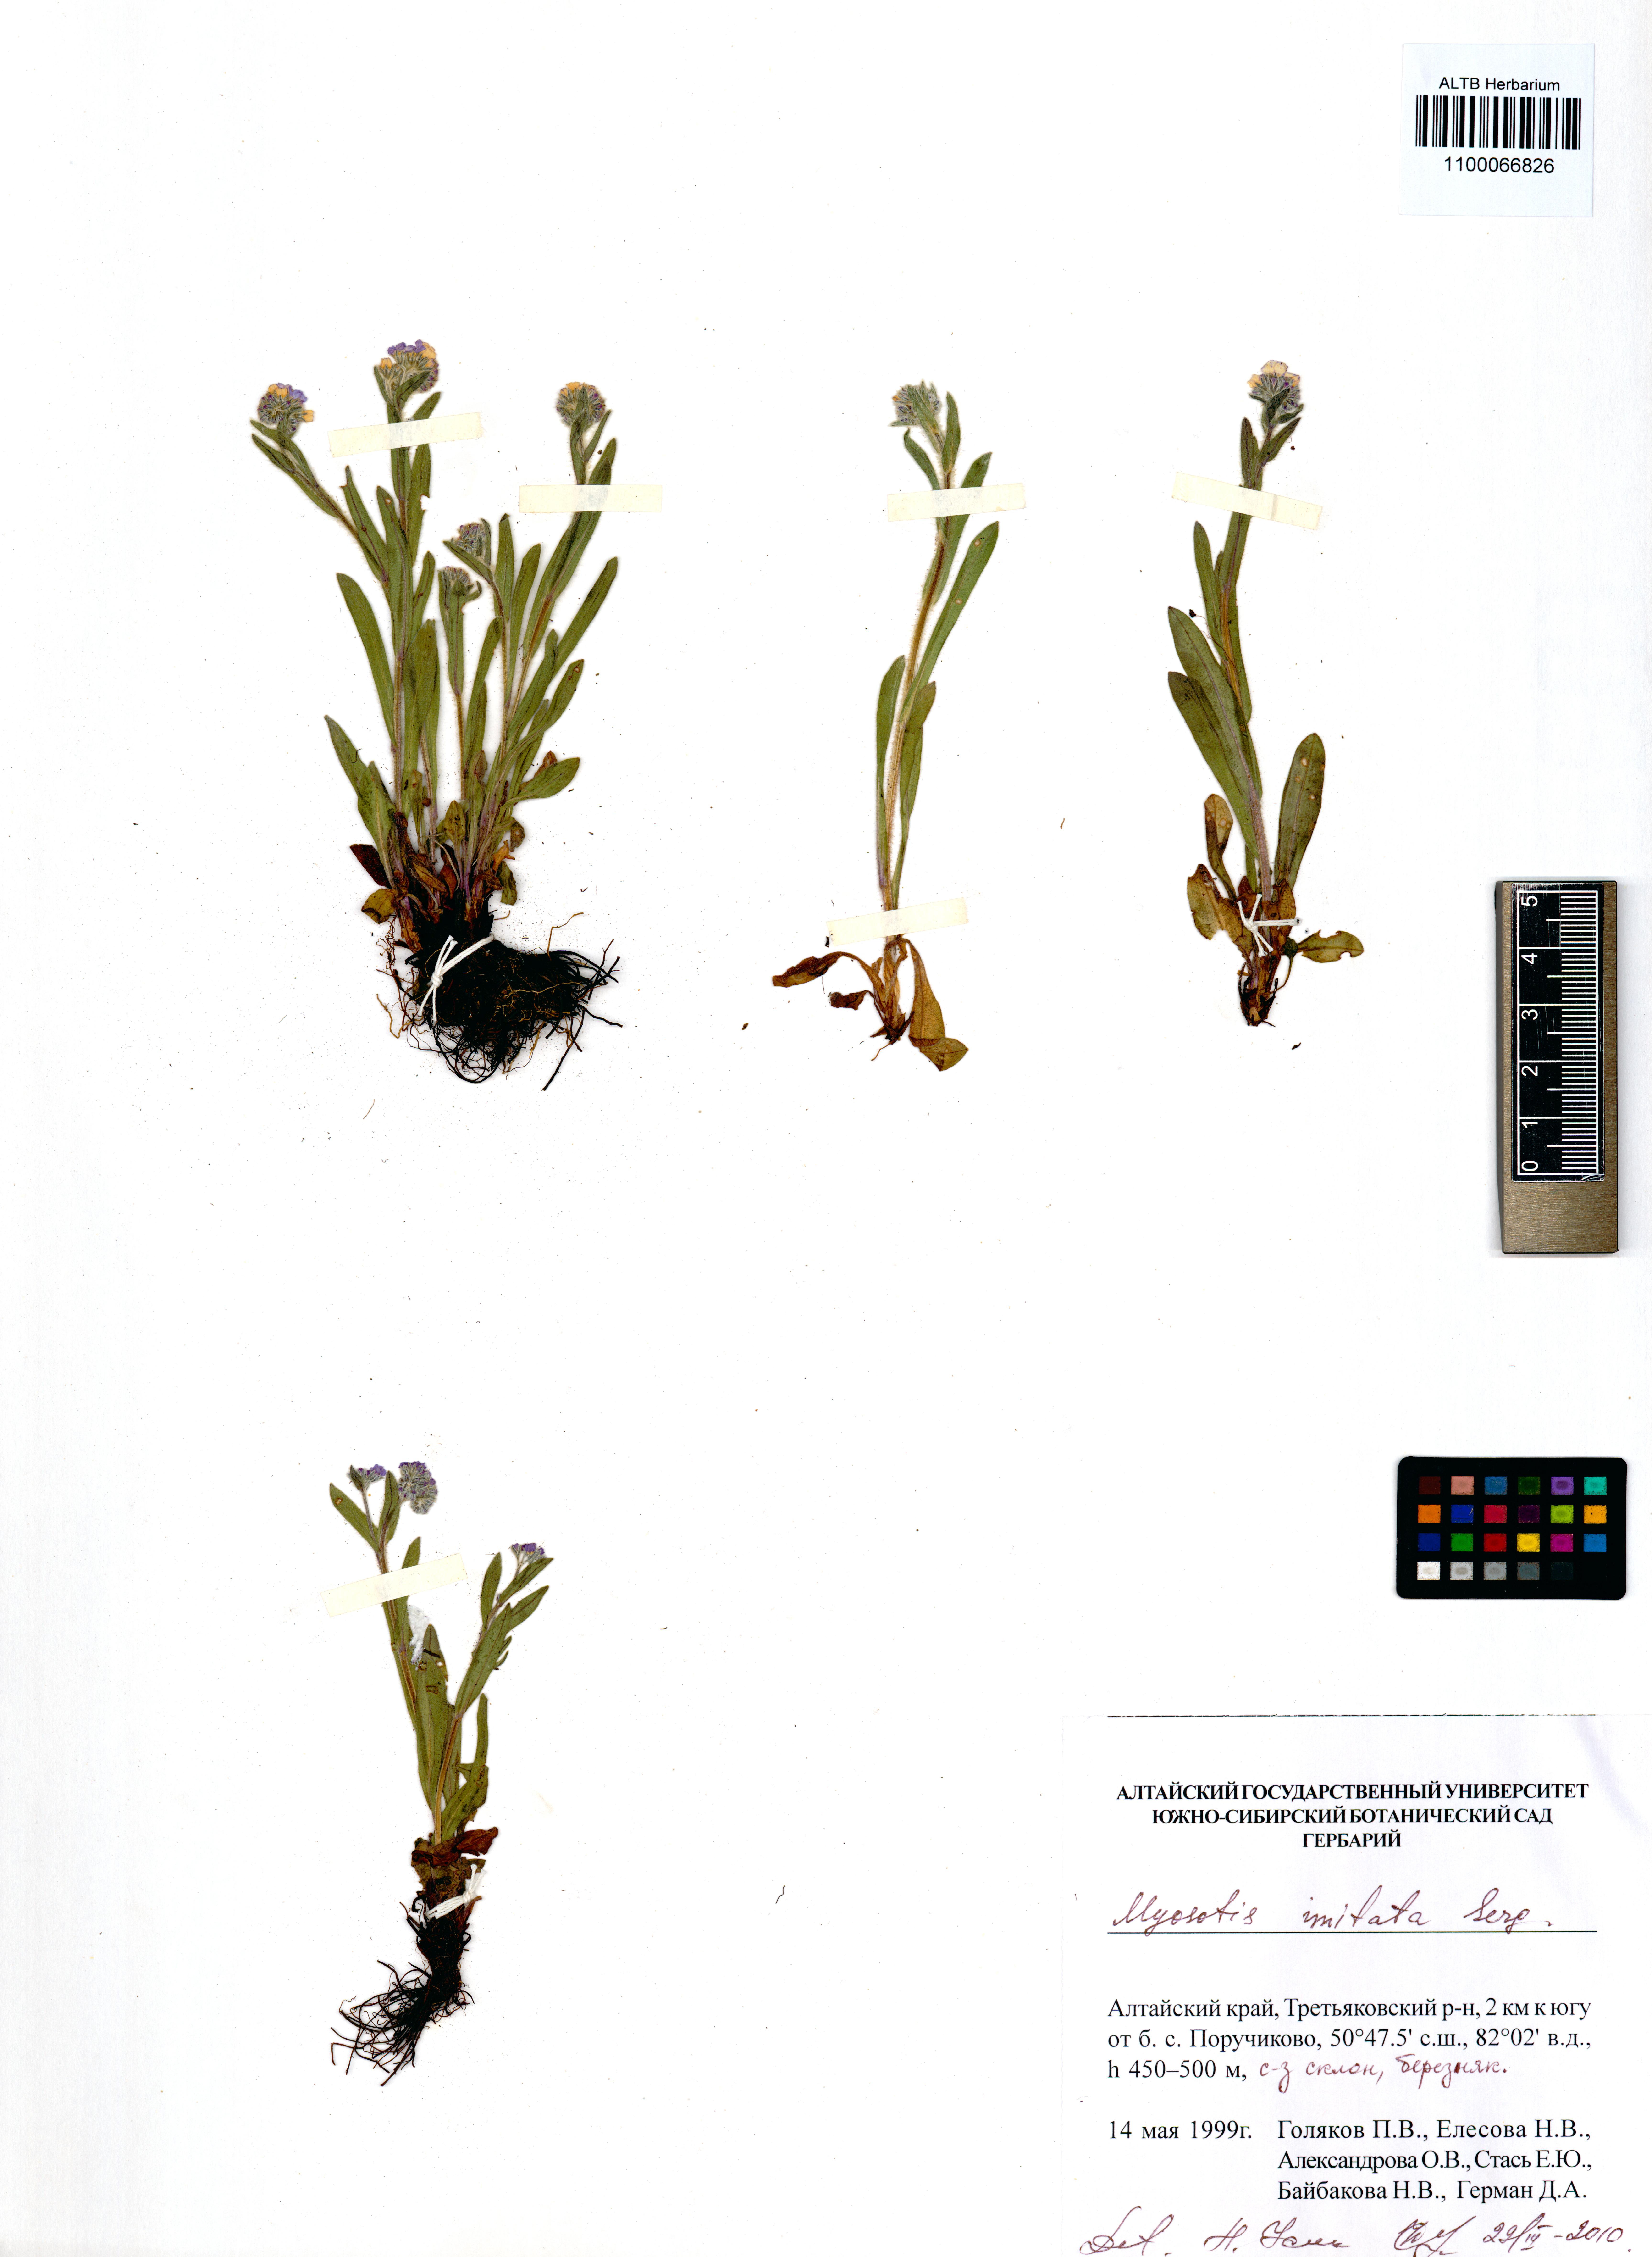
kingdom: Plantae
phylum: Tracheophyta
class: Magnoliopsida
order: Boraginales
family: Boraginaceae
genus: Myosotis
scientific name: Myosotis imitata
